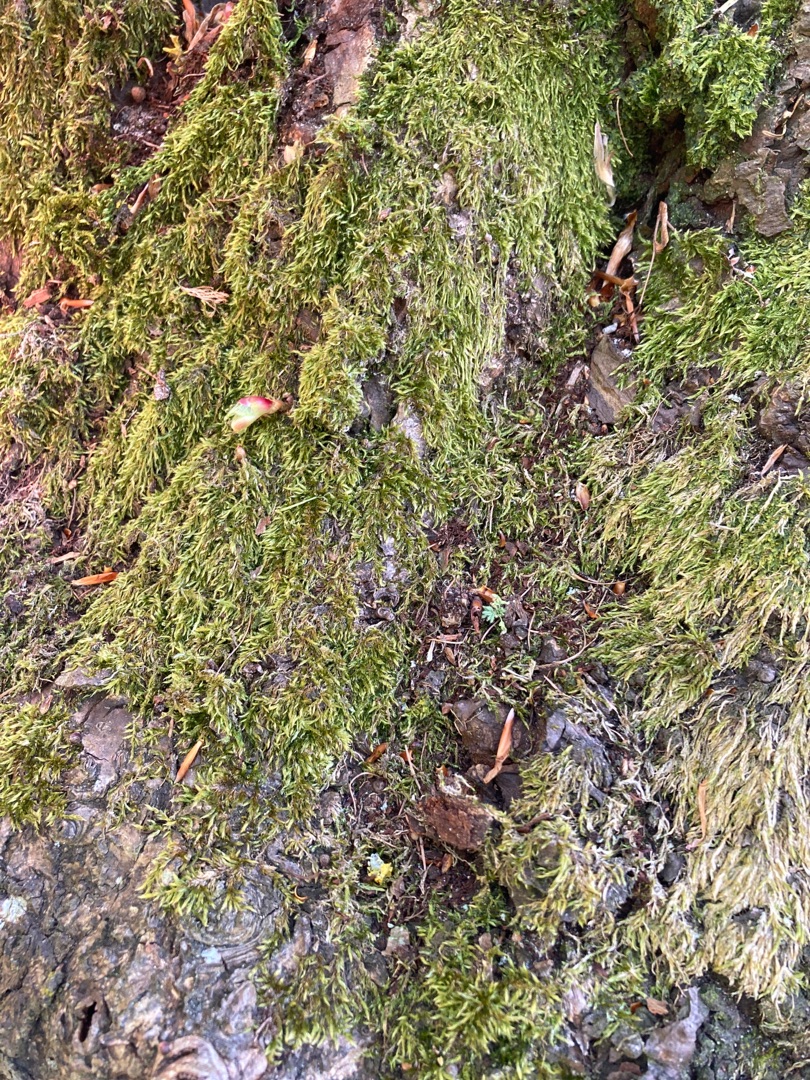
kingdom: Plantae
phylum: Bryophyta
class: Bryopsida
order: Hypnales
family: Hypnaceae
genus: Hypnum
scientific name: Hypnum
